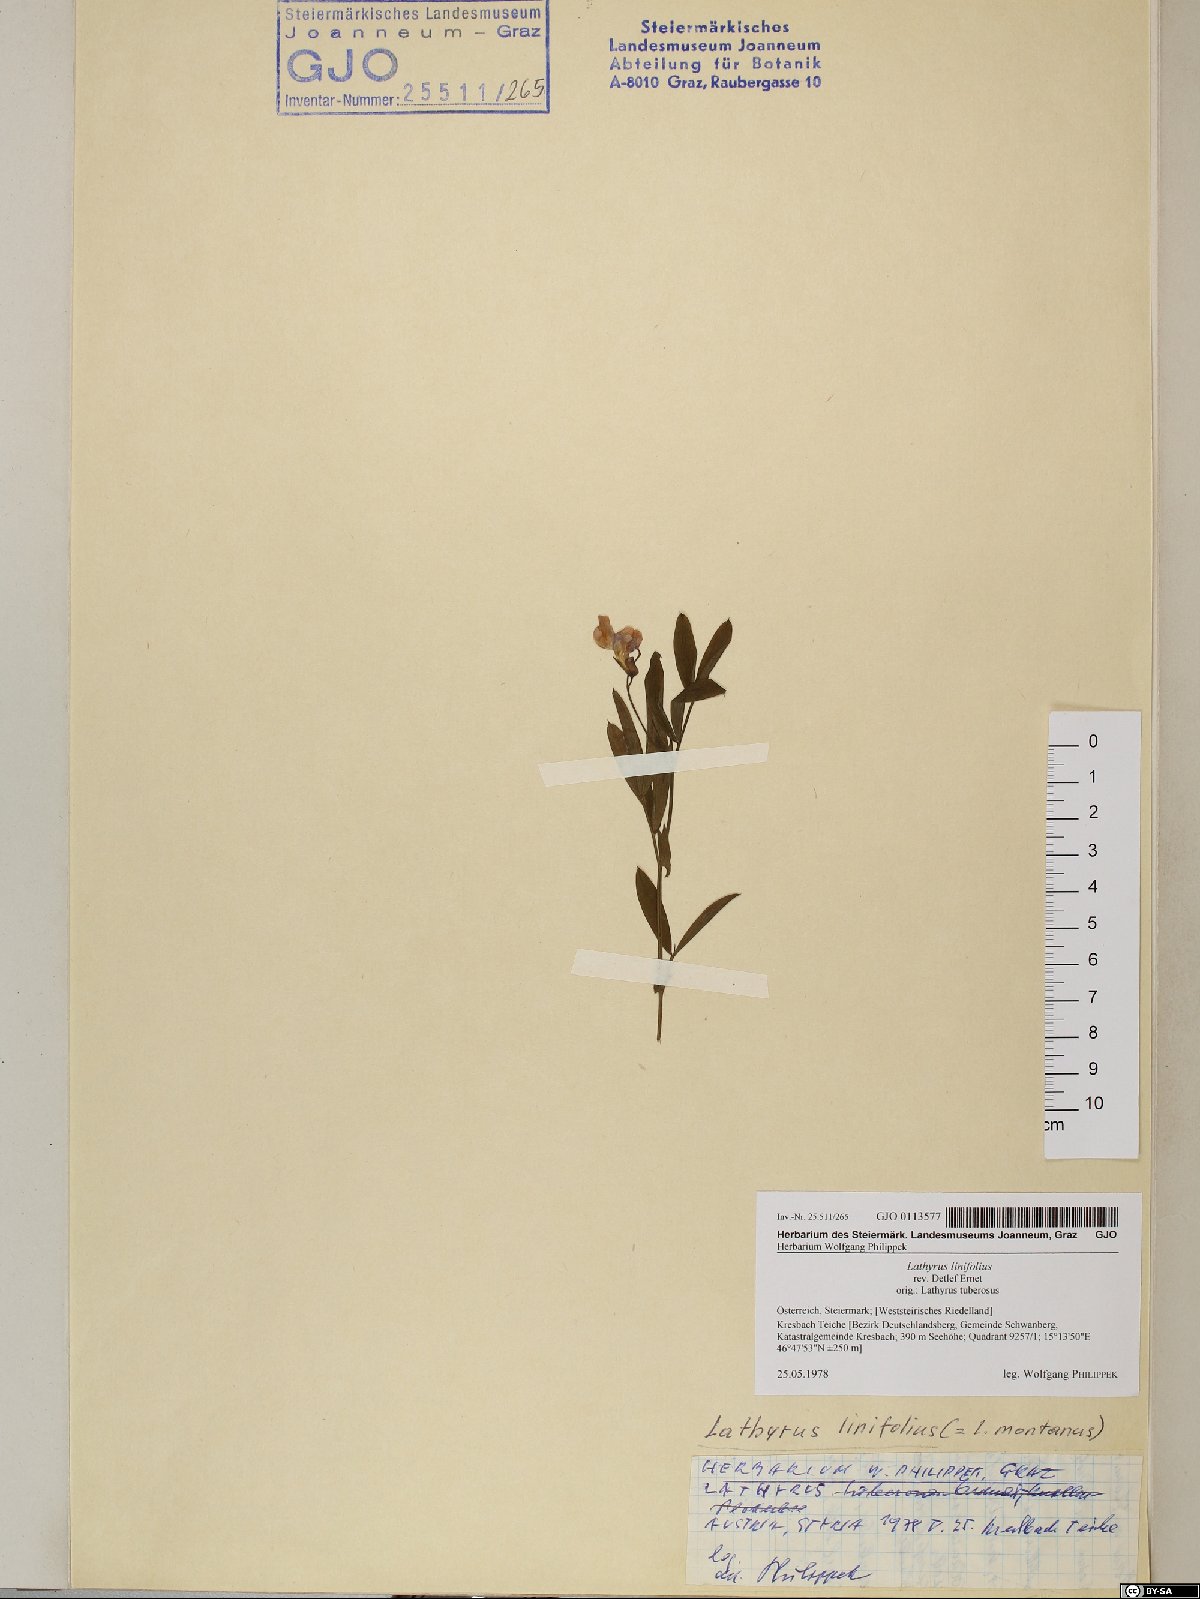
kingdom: Plantae
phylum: Tracheophyta
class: Magnoliopsida
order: Fabales
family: Fabaceae
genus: Lathyrus
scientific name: Lathyrus linifolius
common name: Bitter-vetch
